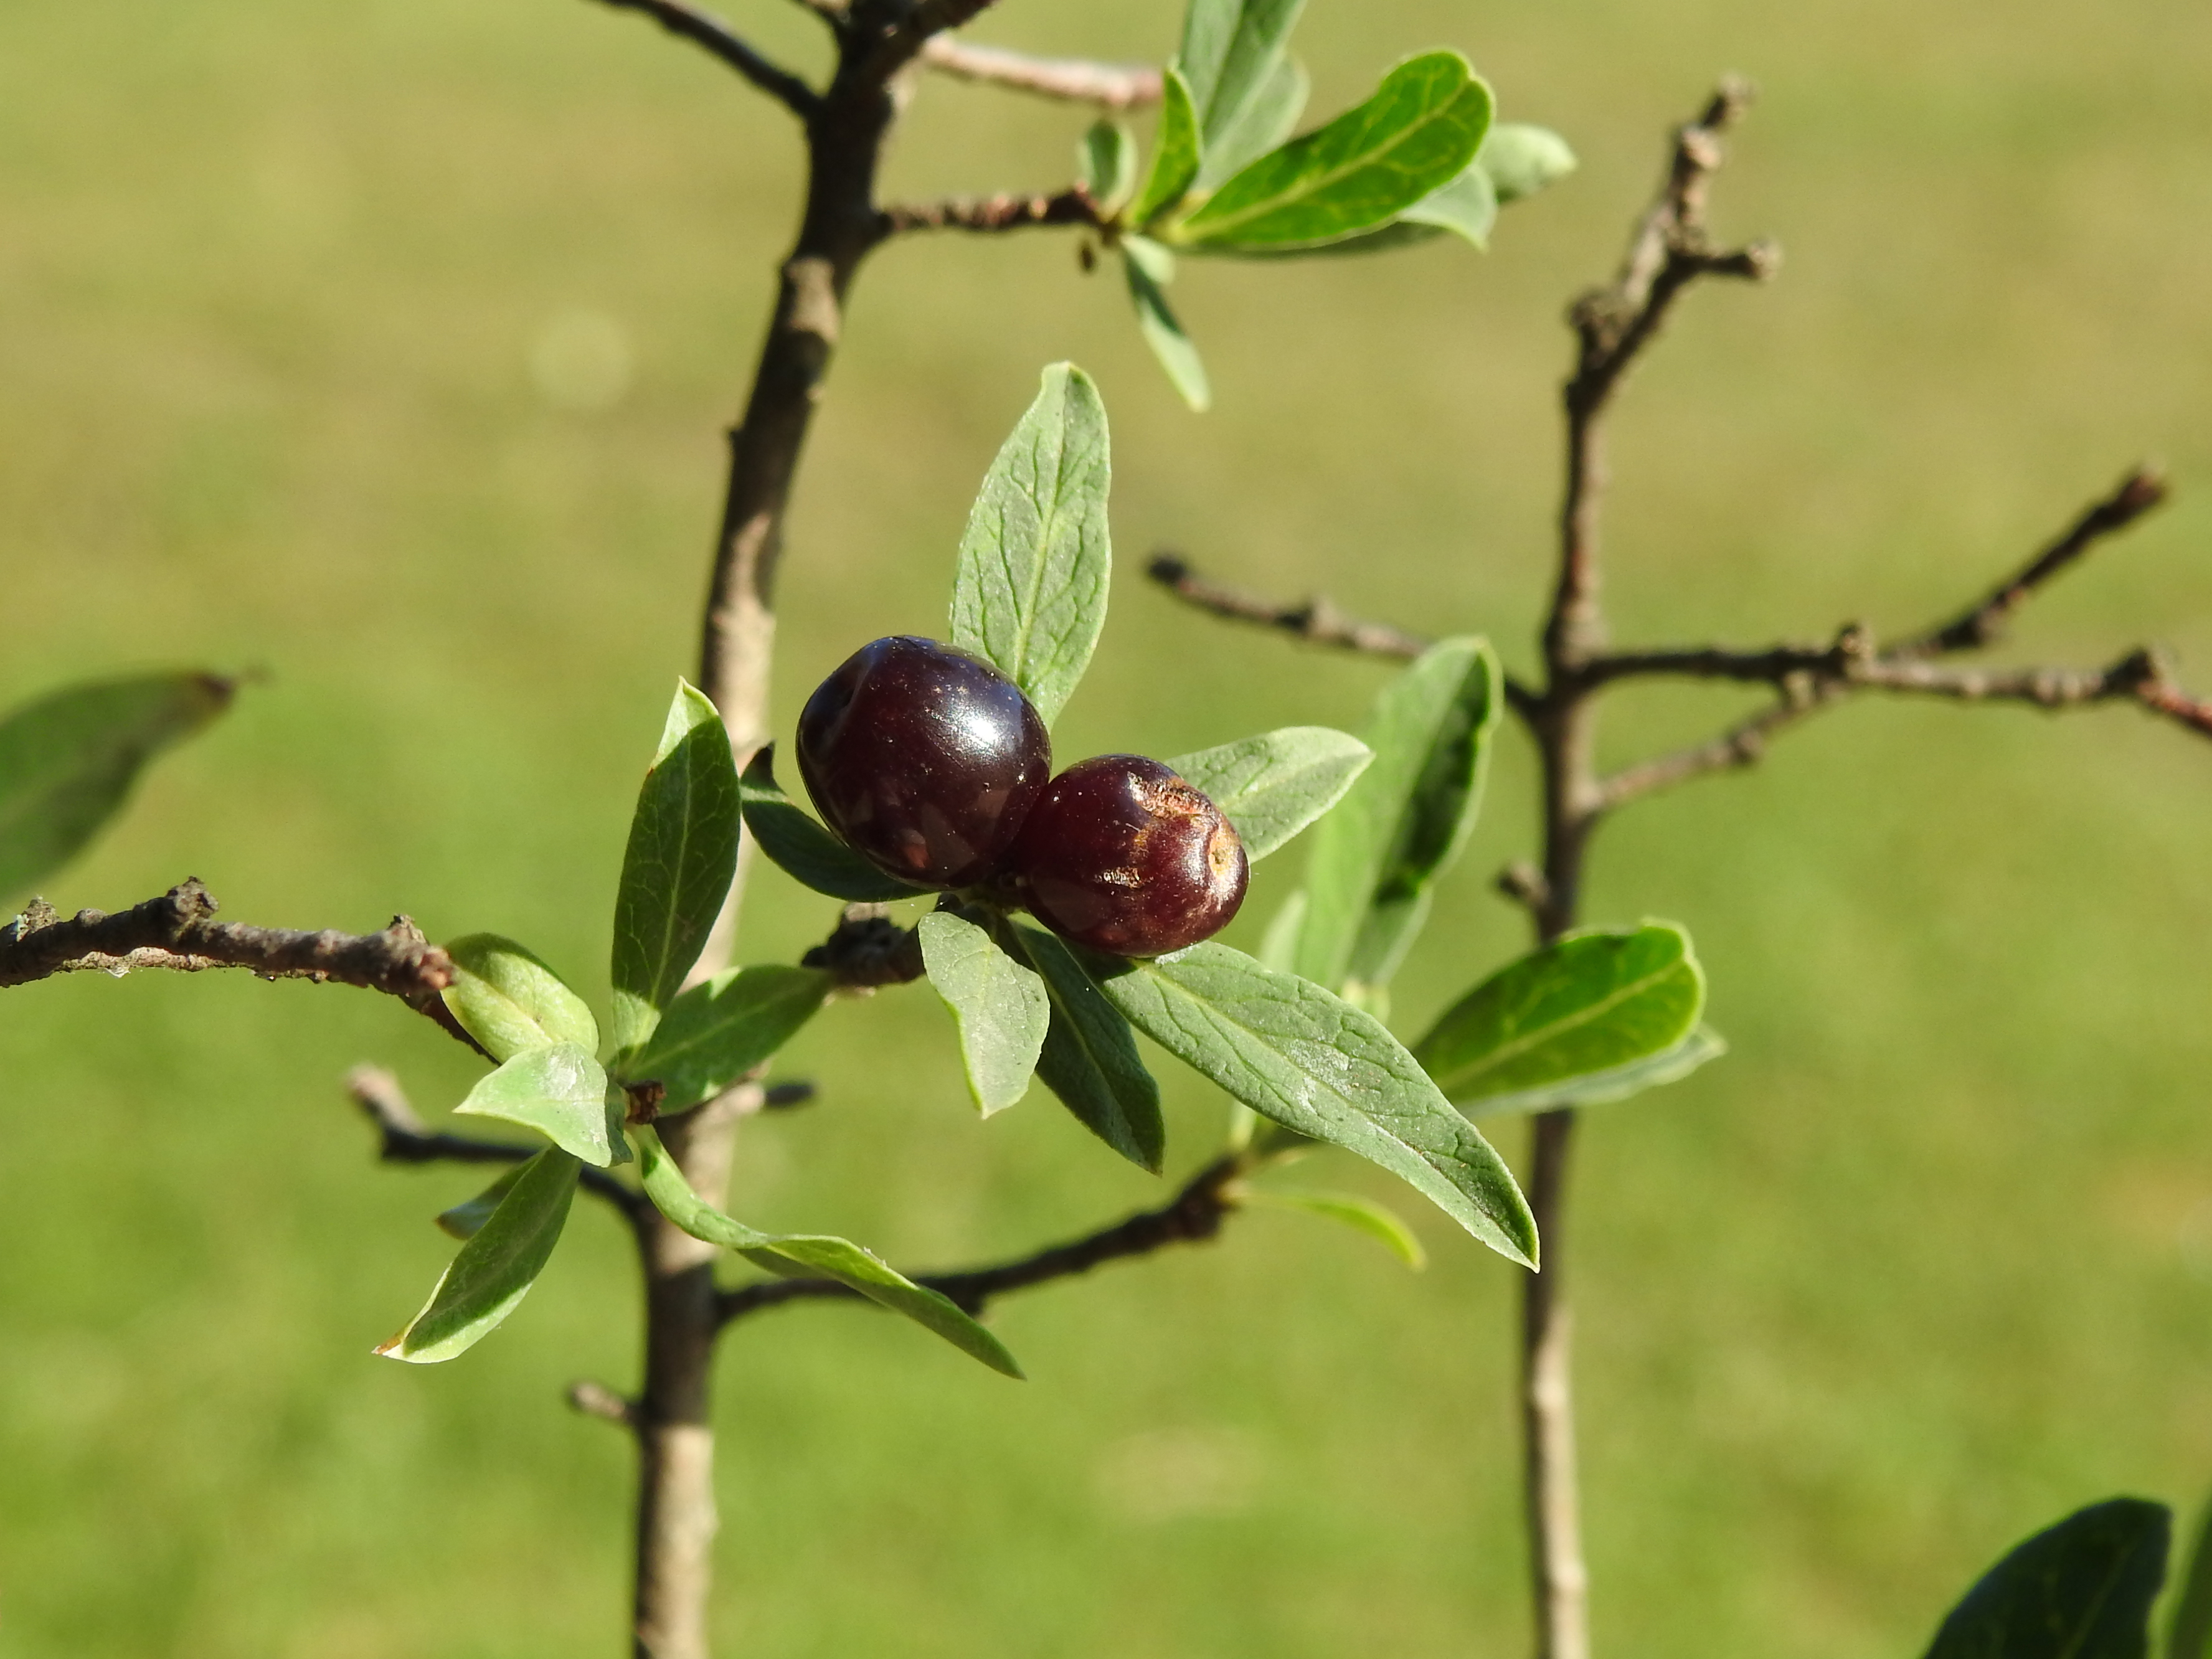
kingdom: Plantae
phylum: Tracheophyta
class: Magnoliopsida
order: Malvales
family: Thymelaeaceae
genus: Daphne
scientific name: Daphne altaica
